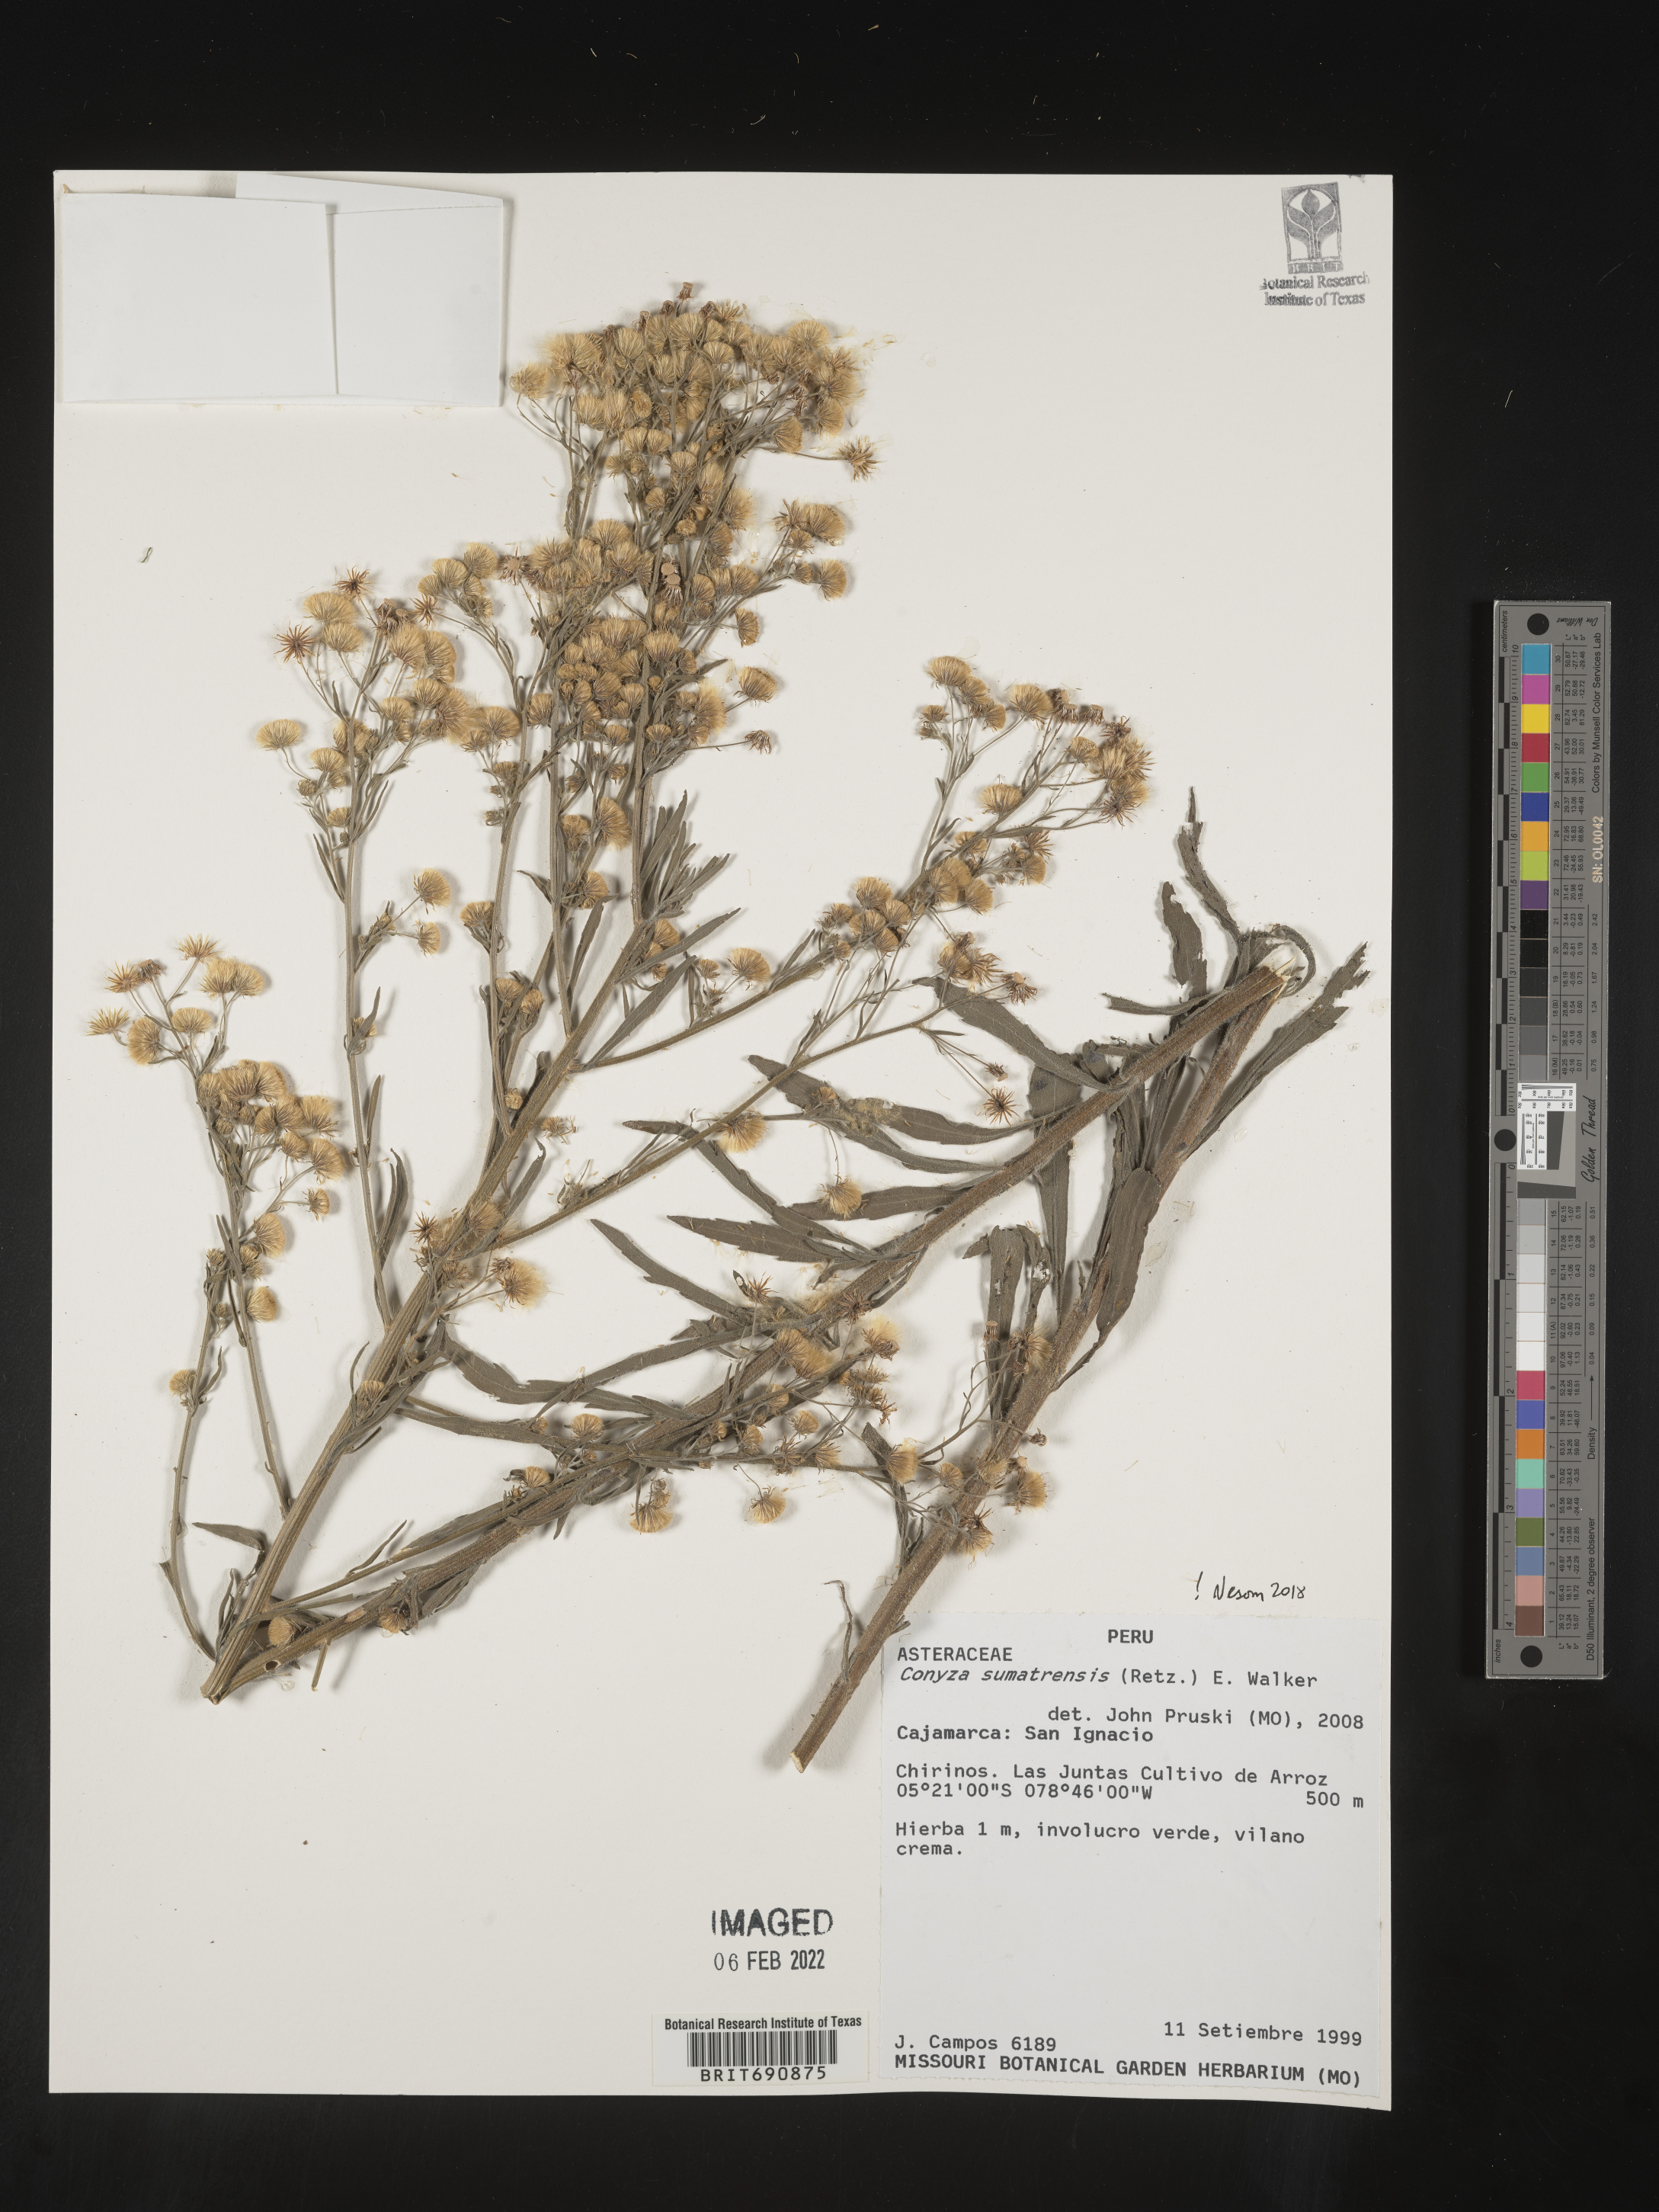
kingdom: Plantae
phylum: Tracheophyta
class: Magnoliopsida
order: Asterales
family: Asteraceae
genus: Conyza
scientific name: Conyza
